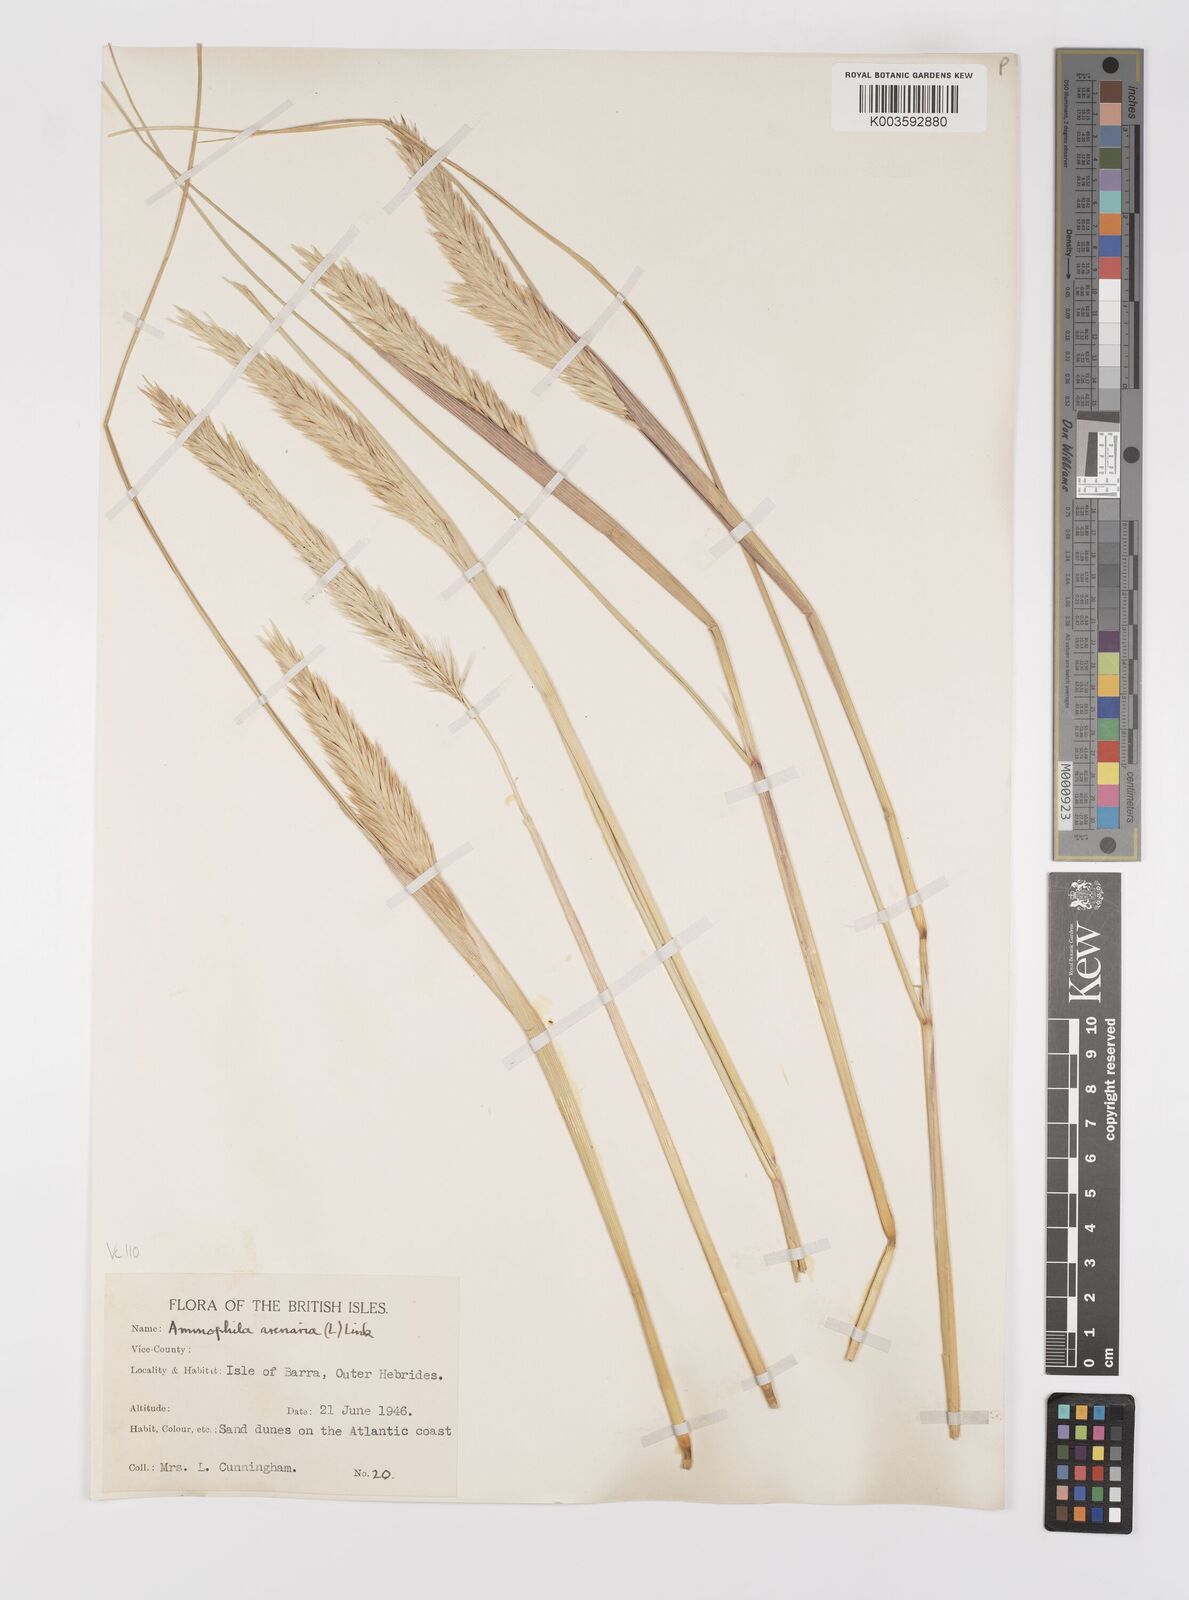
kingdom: Plantae
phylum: Tracheophyta
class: Liliopsida
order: Poales
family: Poaceae
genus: Calamagrostis
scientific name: Calamagrostis arenaria
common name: European beachgrass
